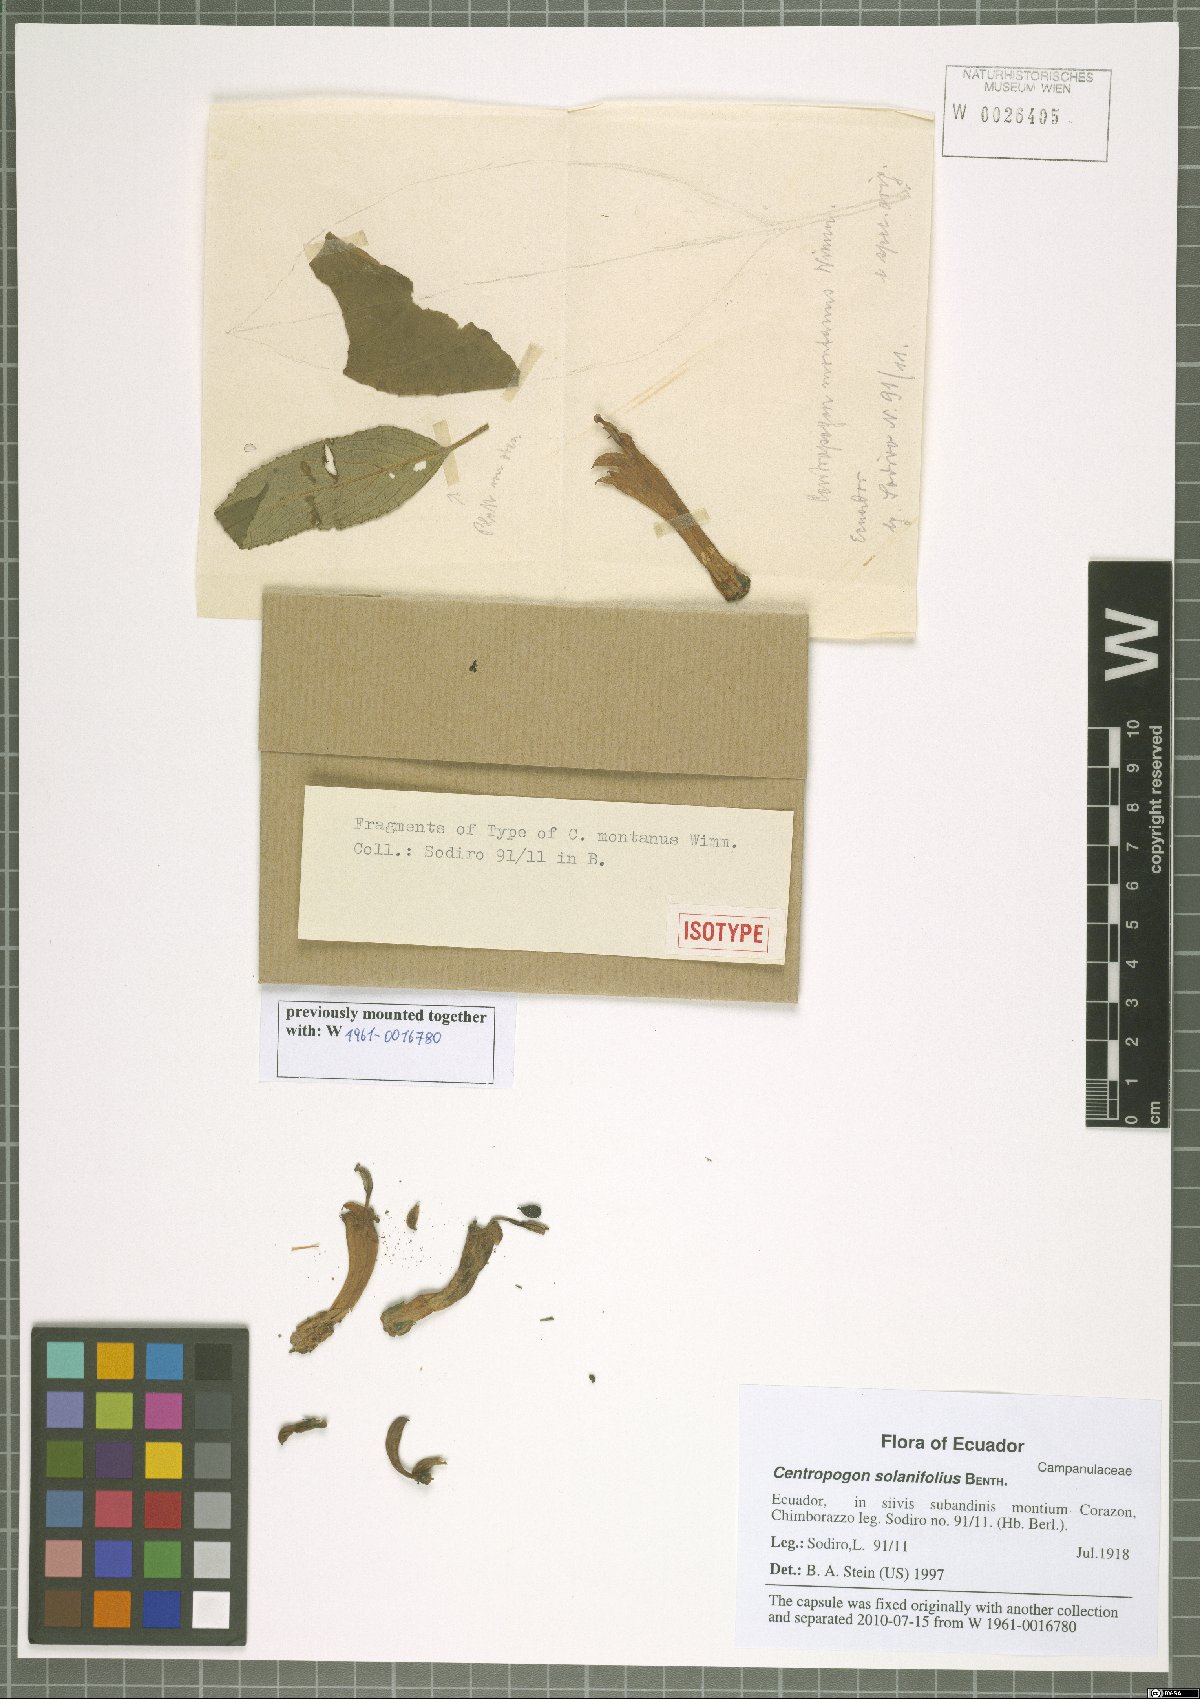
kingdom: Plantae
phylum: Tracheophyta
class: Magnoliopsida
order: Asterales
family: Campanulaceae
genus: Centropogon
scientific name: Centropogon solanifolius
